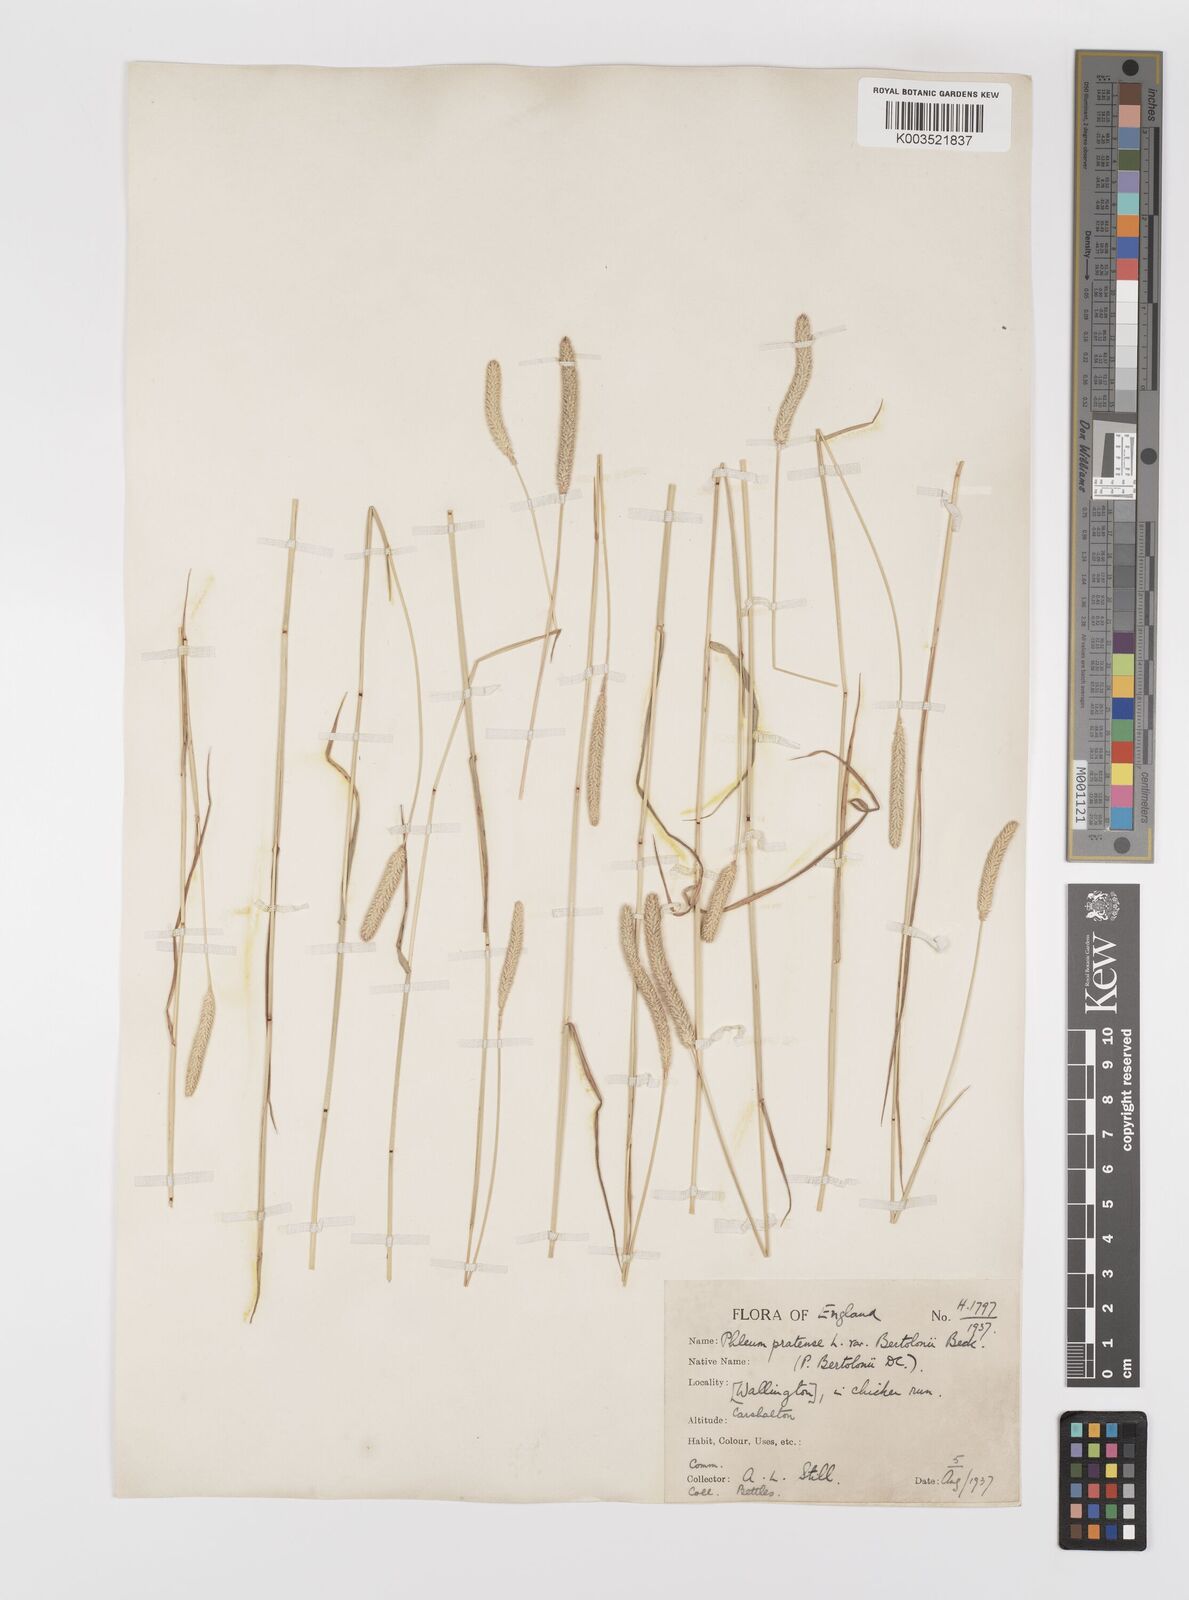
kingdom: Plantae
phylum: Tracheophyta
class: Liliopsida
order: Poales
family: Poaceae
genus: Phleum
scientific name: Phleum bertolonii
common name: Smaller cat's-tail
